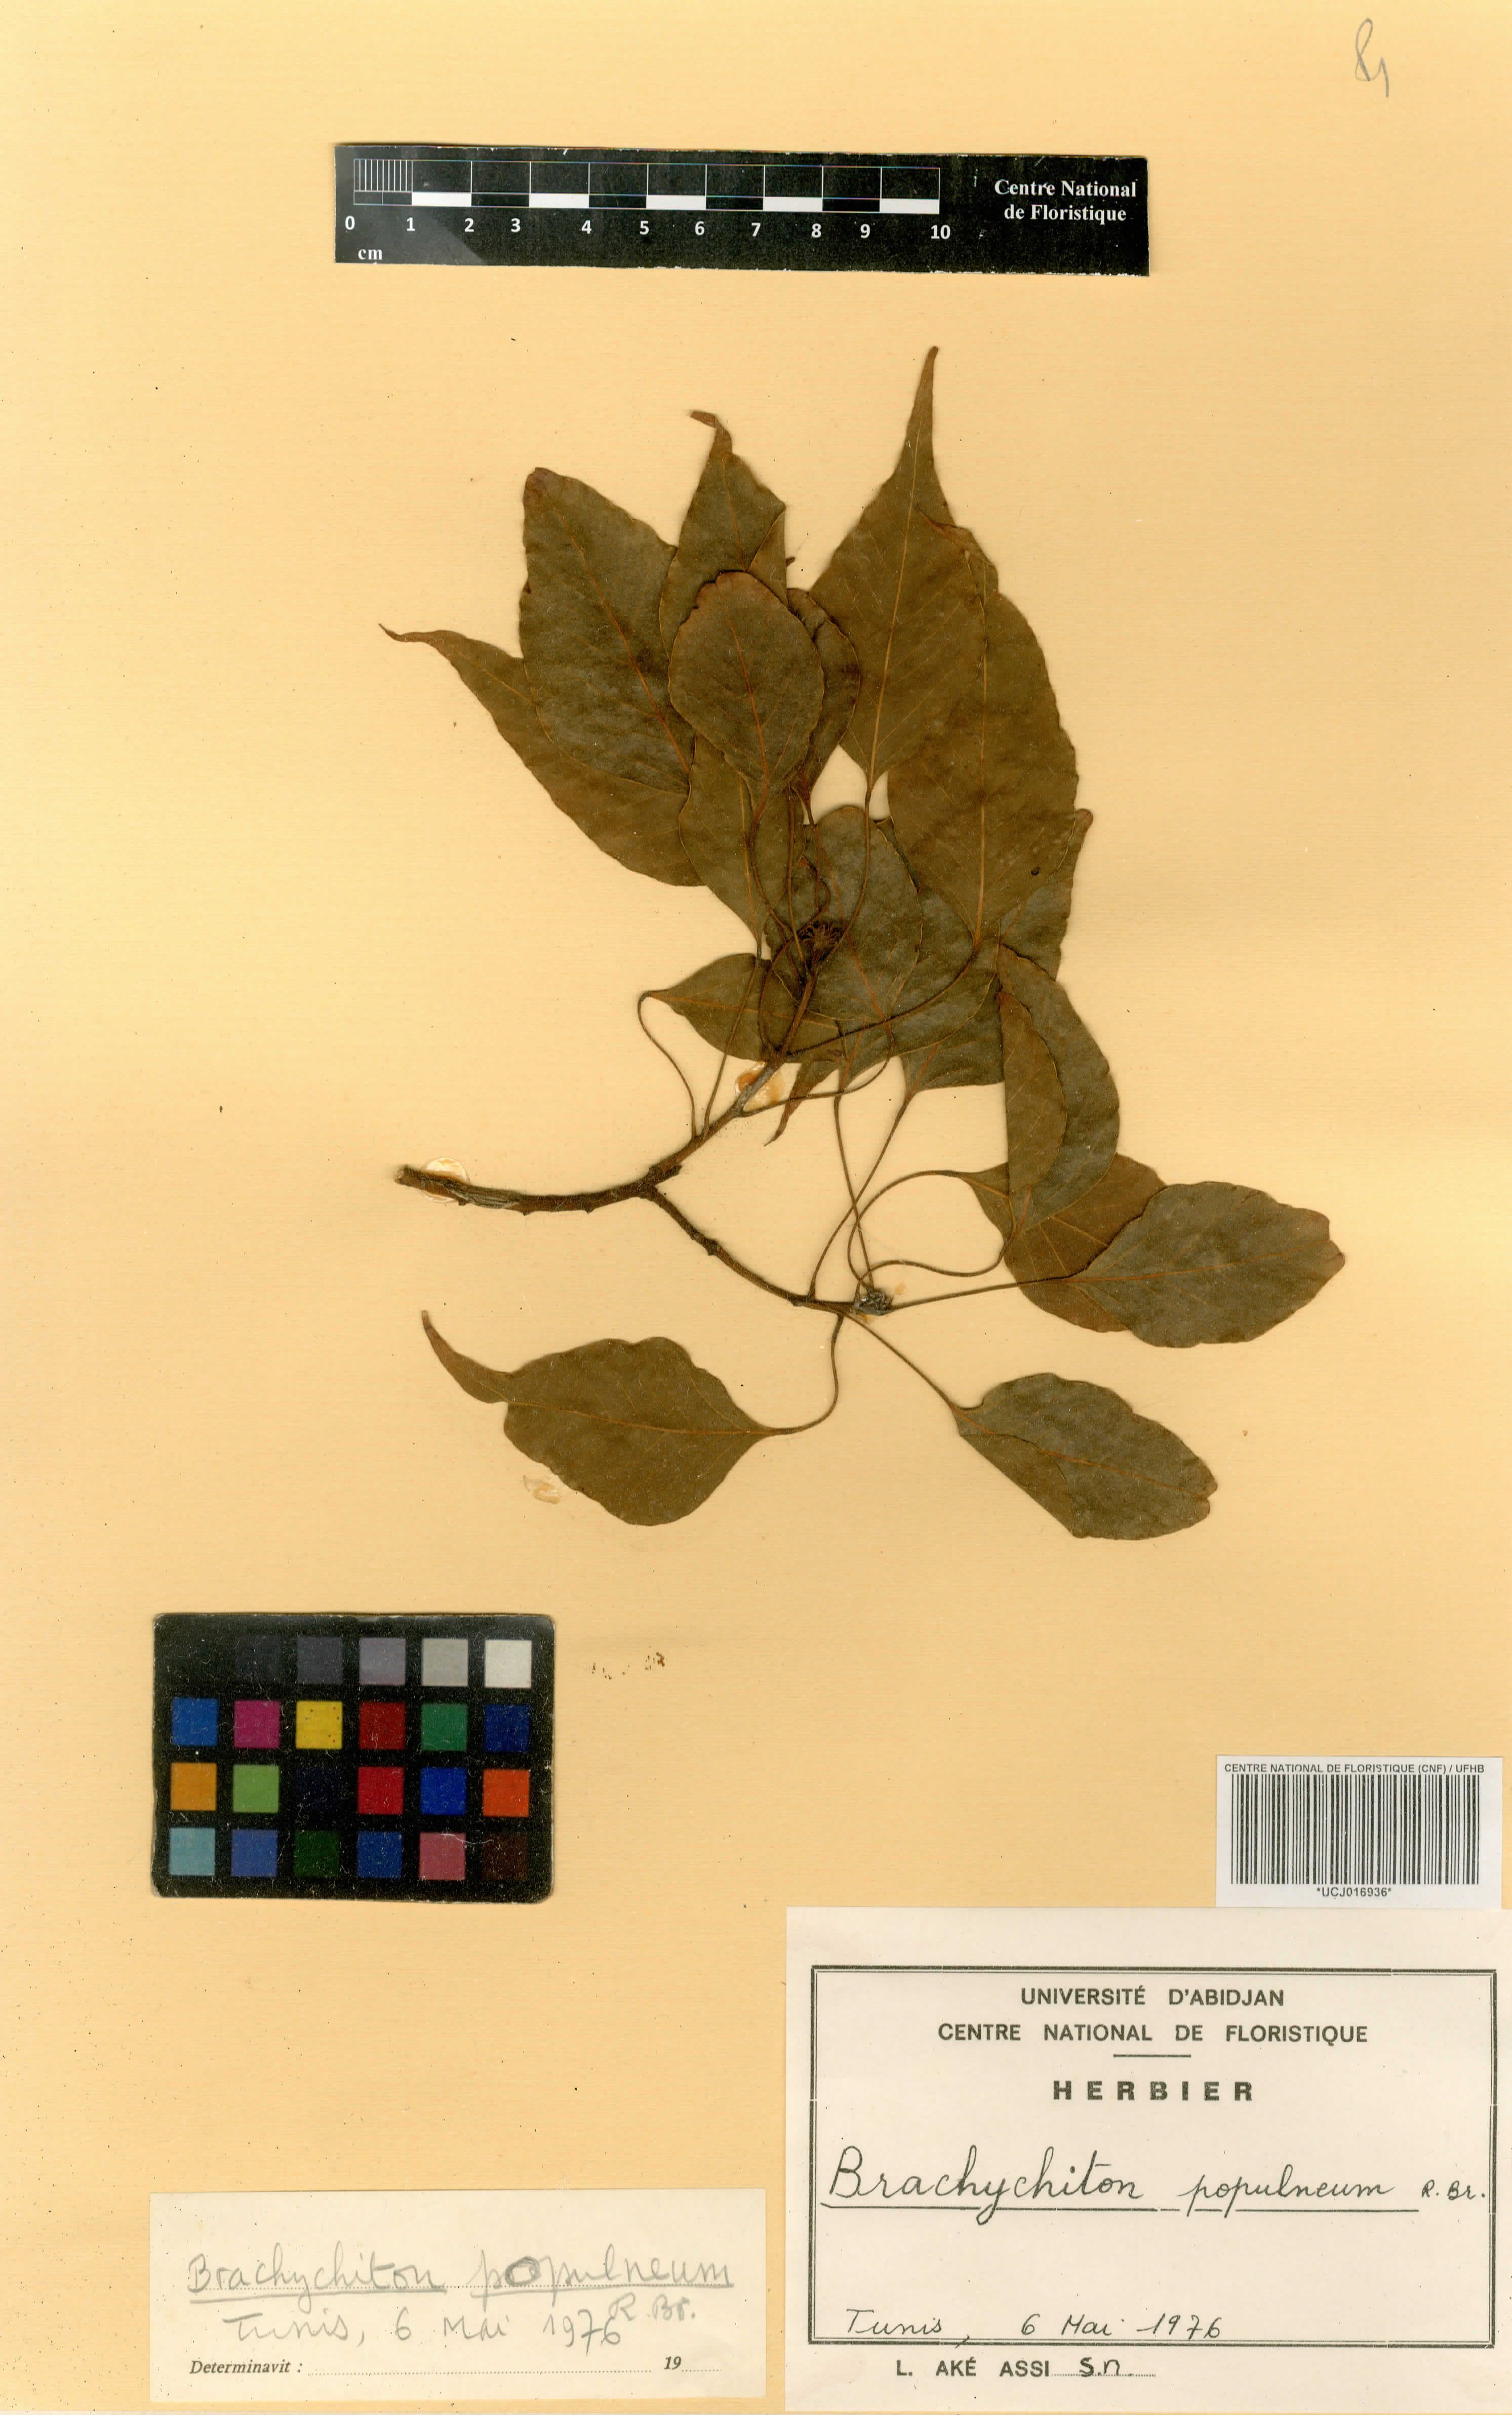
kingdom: Plantae
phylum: Tracheophyta
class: Magnoliopsida
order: Solanales
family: Sphenocleaceae
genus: Sphenoclea
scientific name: Sphenoclea zeylanica
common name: Chickenspike
